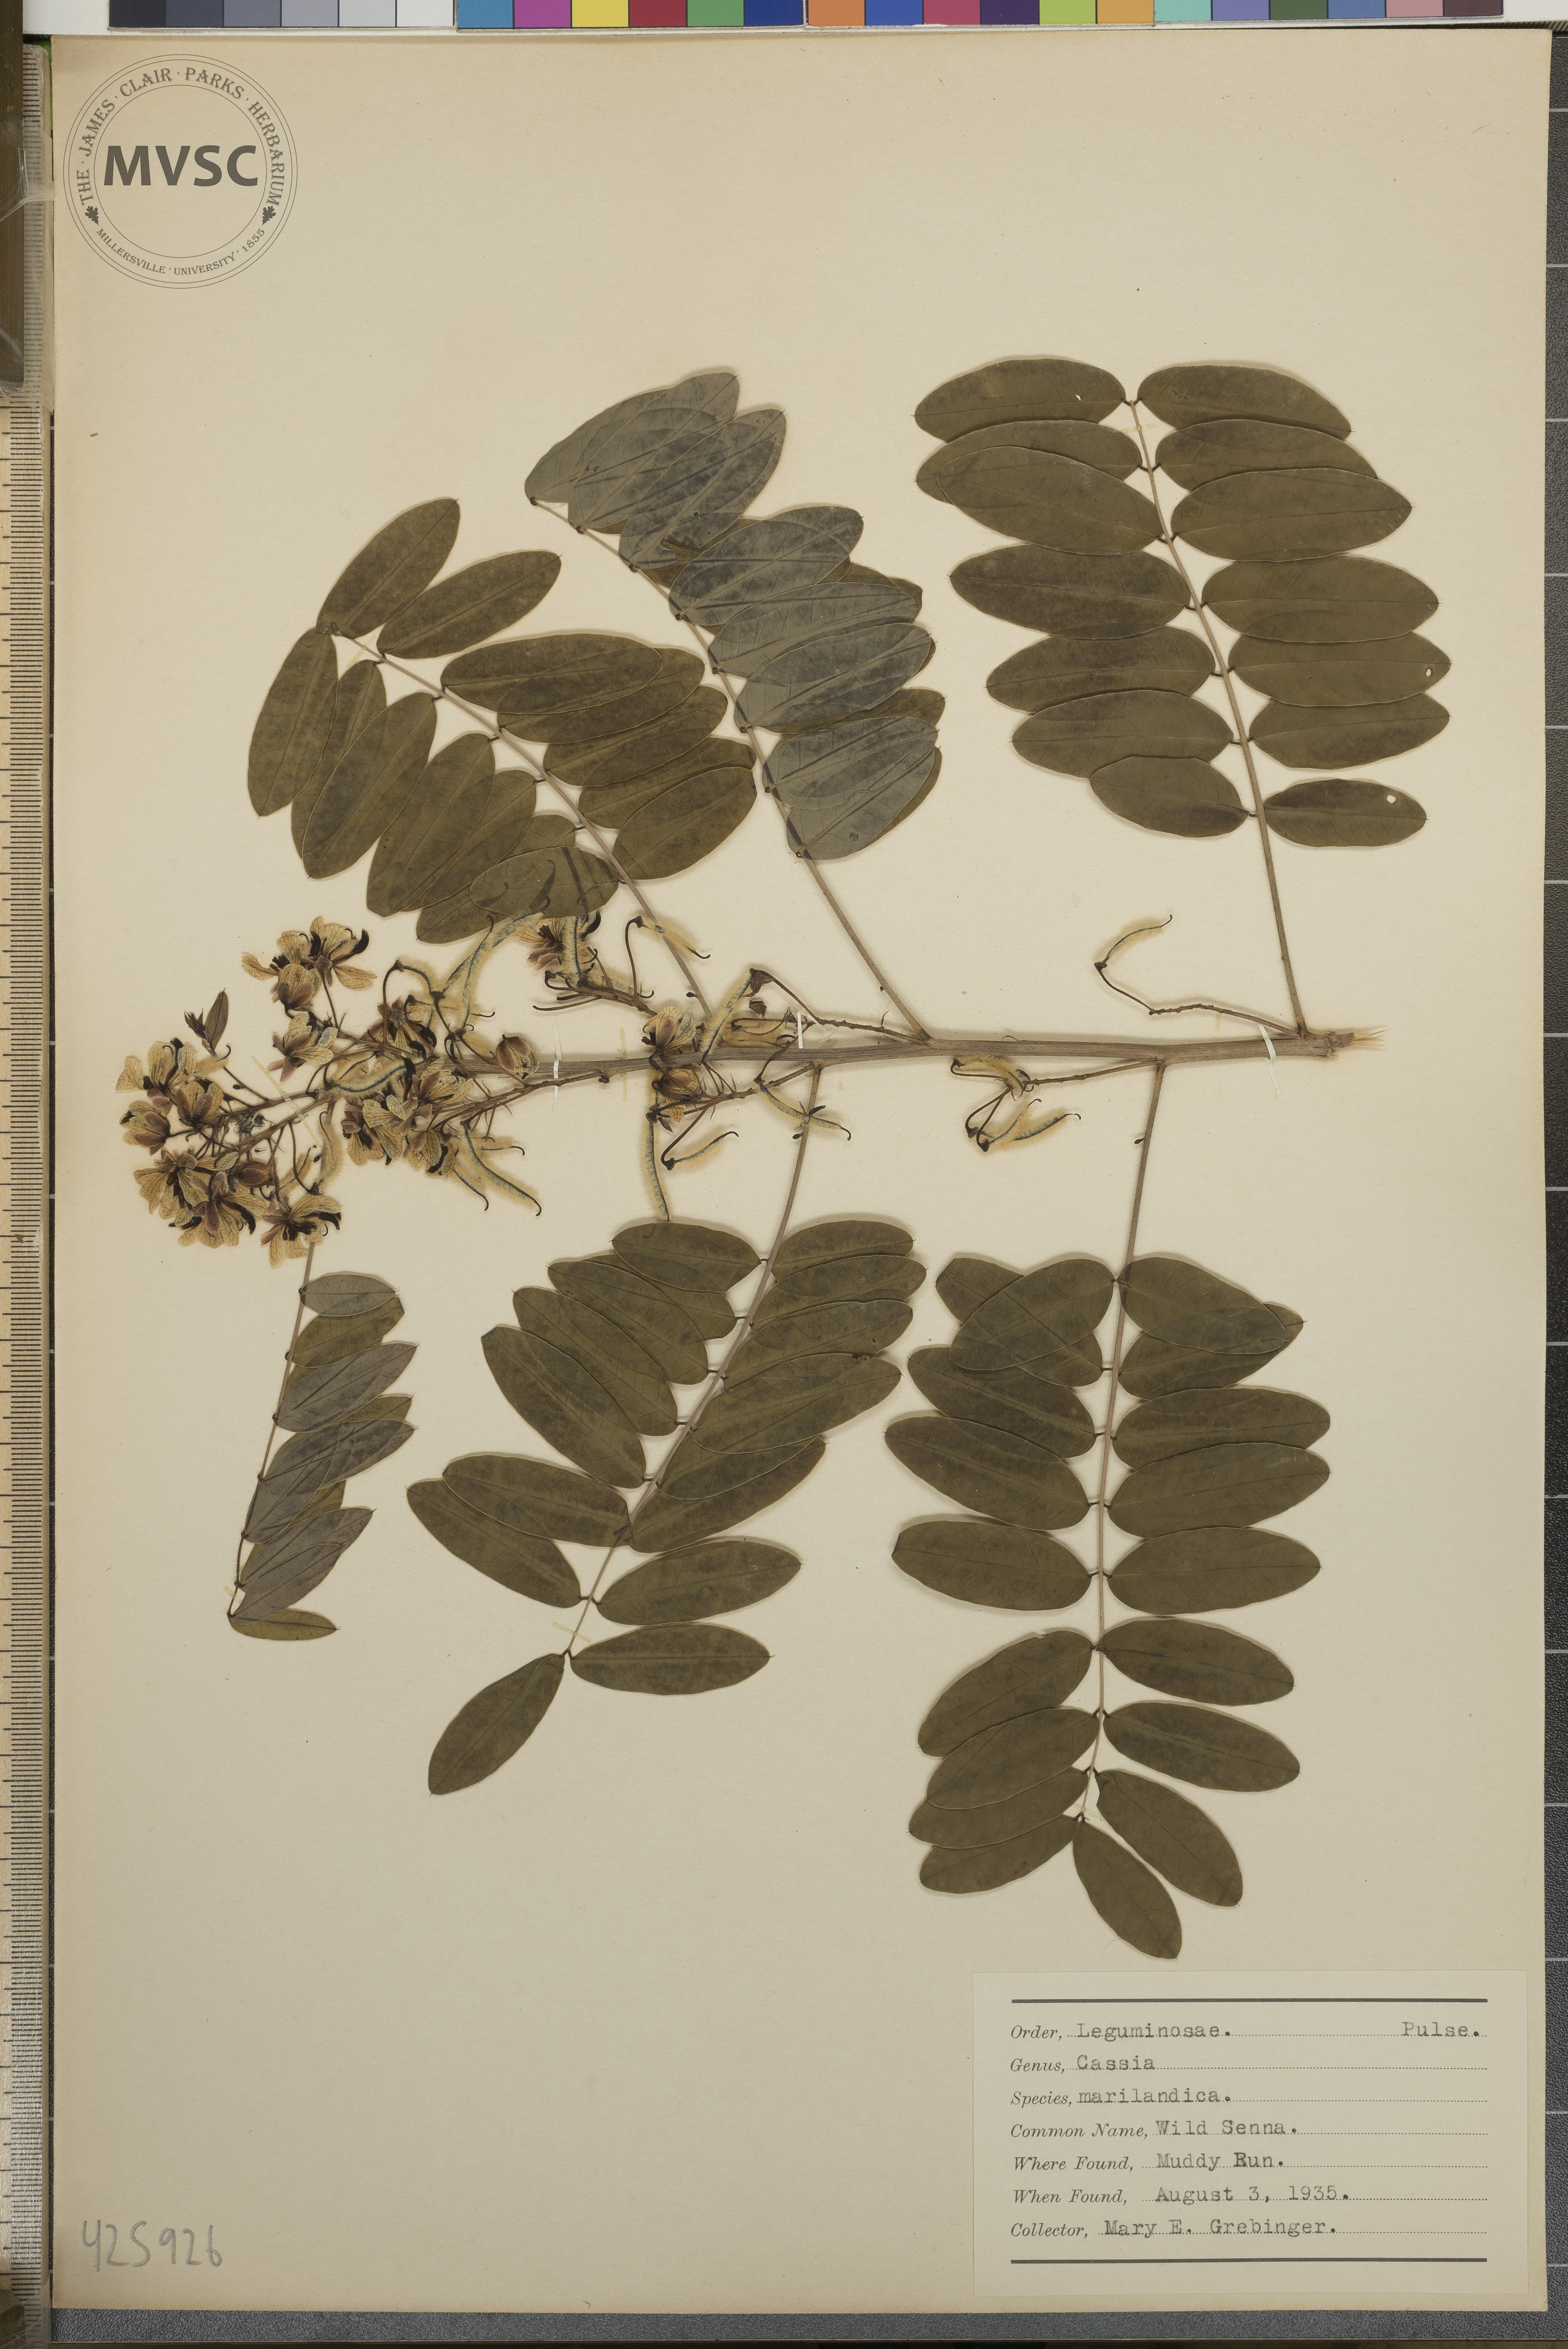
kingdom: Plantae
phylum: Tracheophyta
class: Magnoliopsida
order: Fabales
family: Fabaceae
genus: Senna
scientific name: Senna hebecarpa
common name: wild senna
